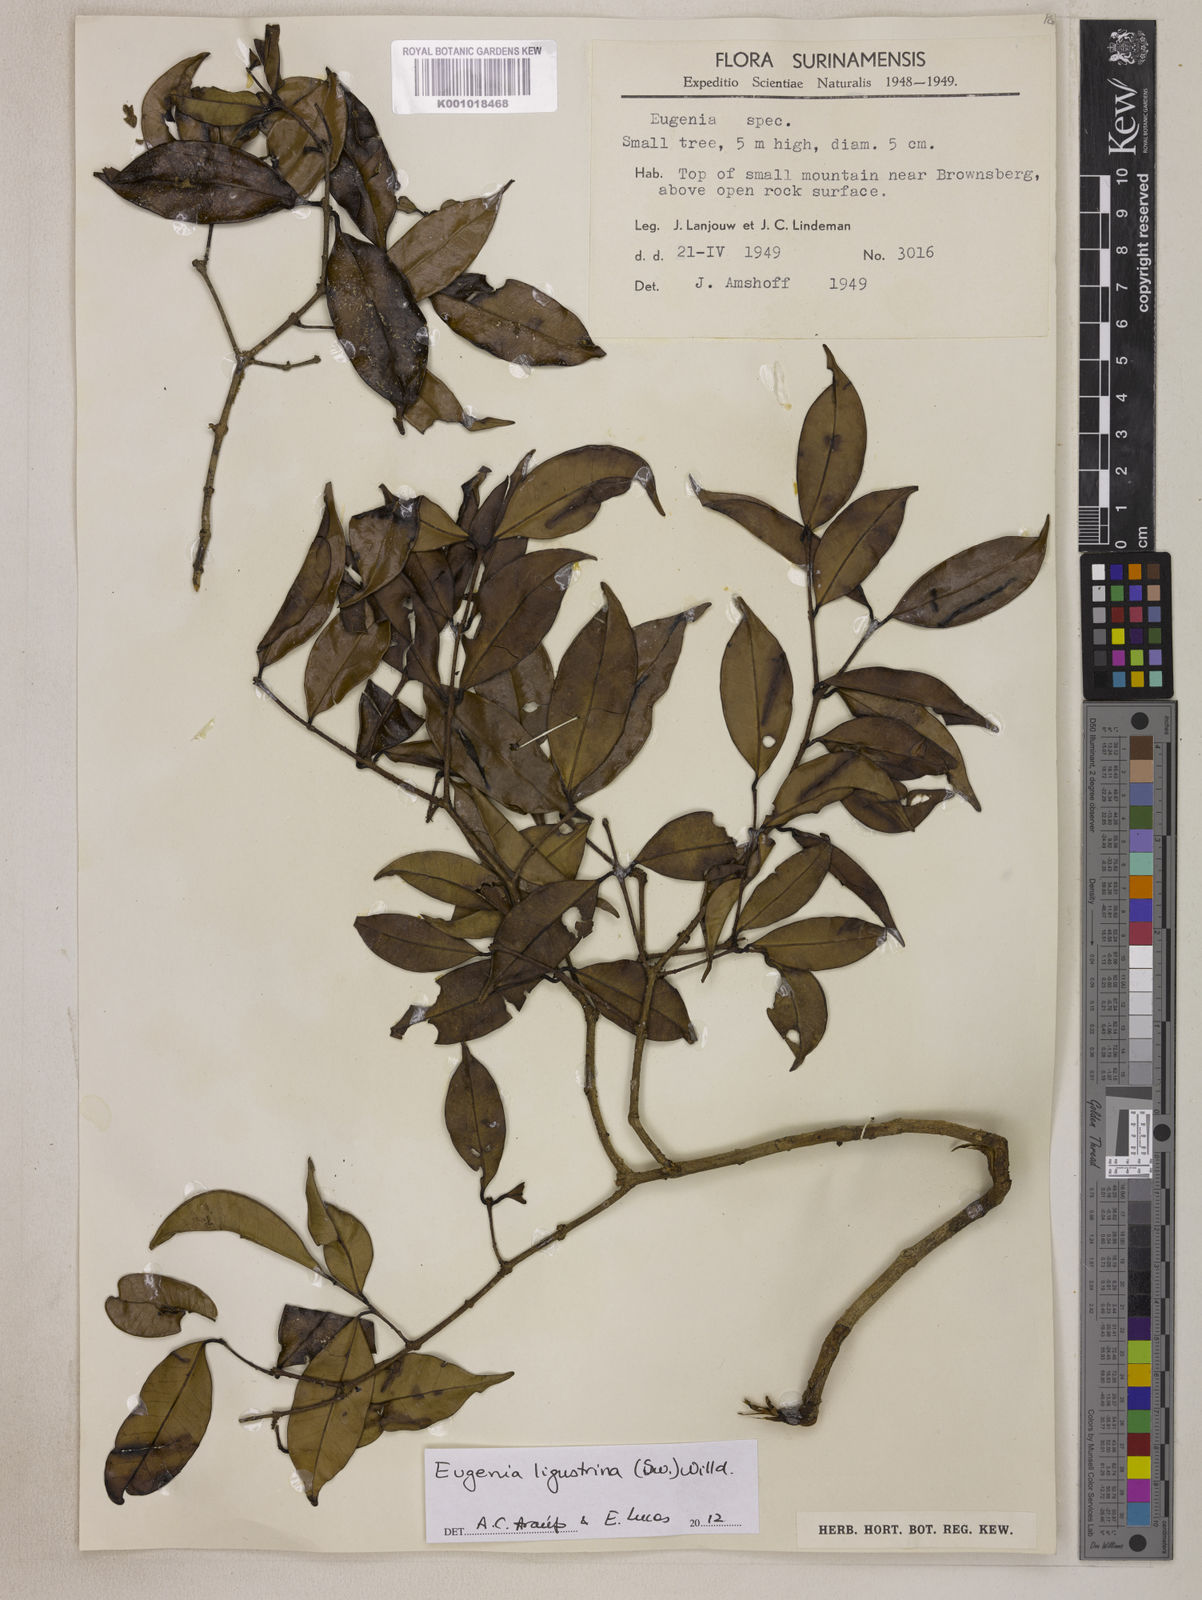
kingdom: Plantae
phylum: Tracheophyta
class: Magnoliopsida
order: Myrtales
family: Myrtaceae
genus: Eugenia
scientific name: Eugenia ligustrina
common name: Privet stopper
